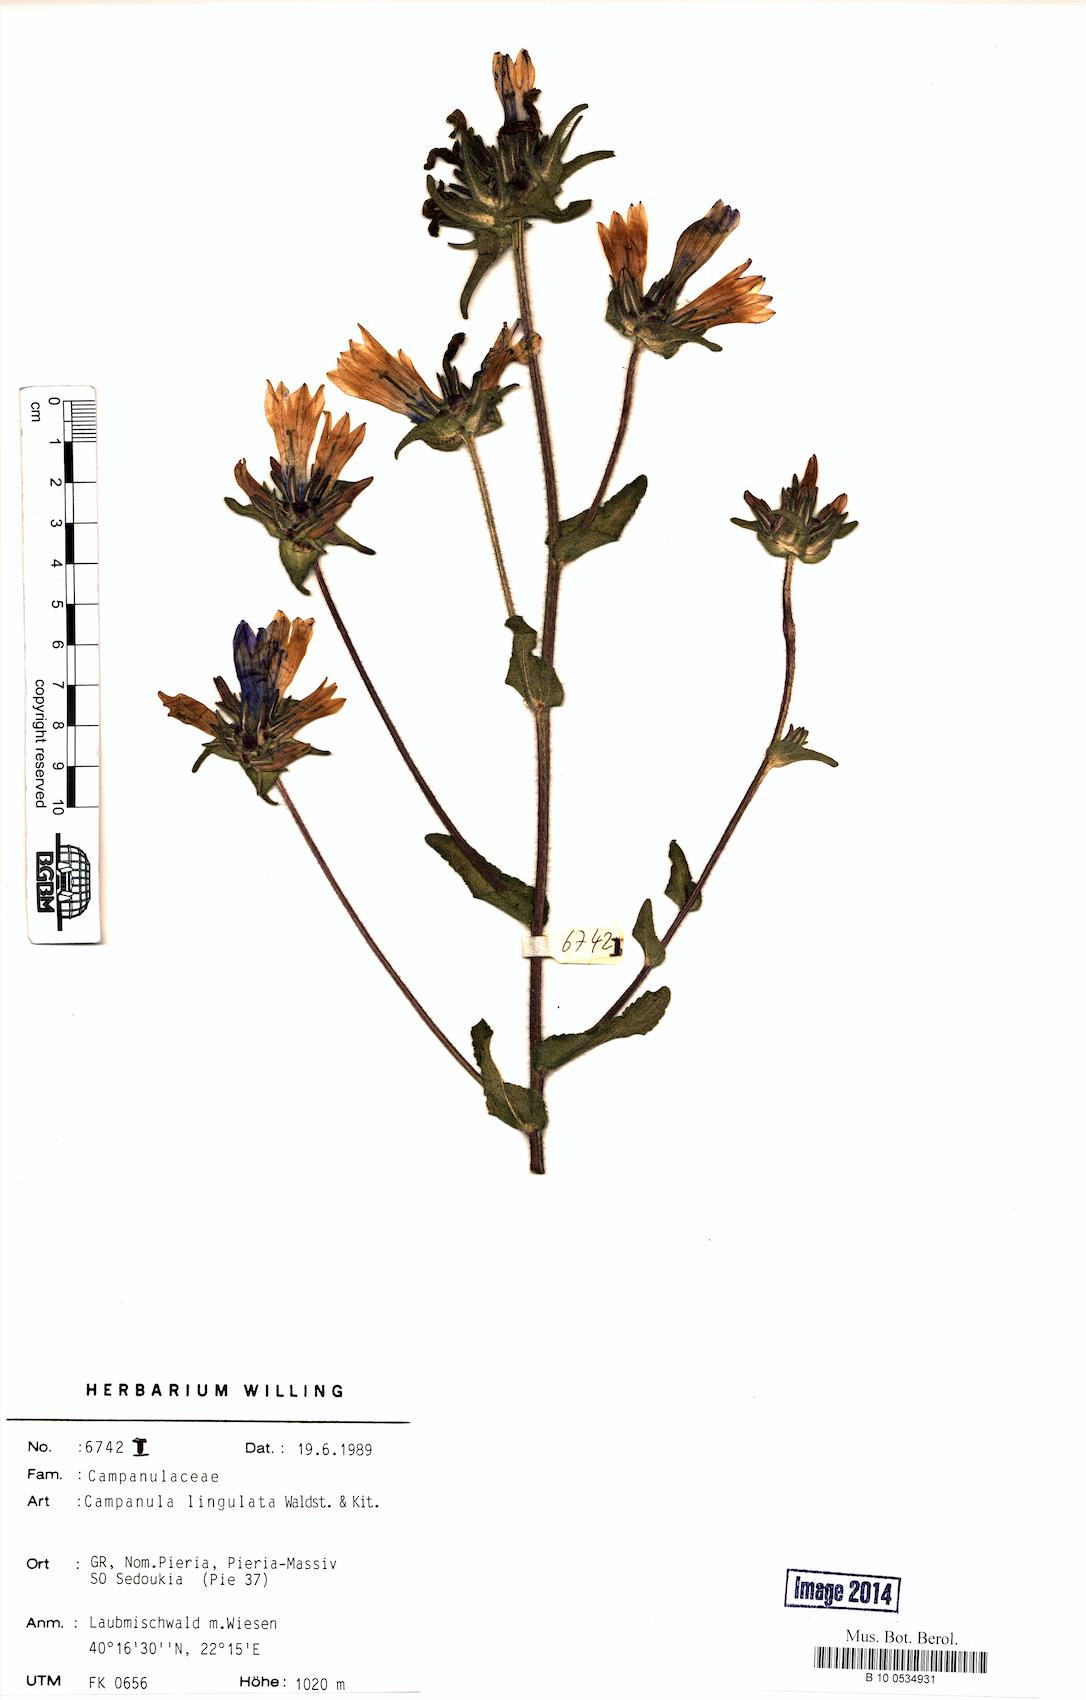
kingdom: Plantae
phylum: Tracheophyta
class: Magnoliopsida
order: Asterales
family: Campanulaceae
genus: Campanula
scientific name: Campanula lingulata
